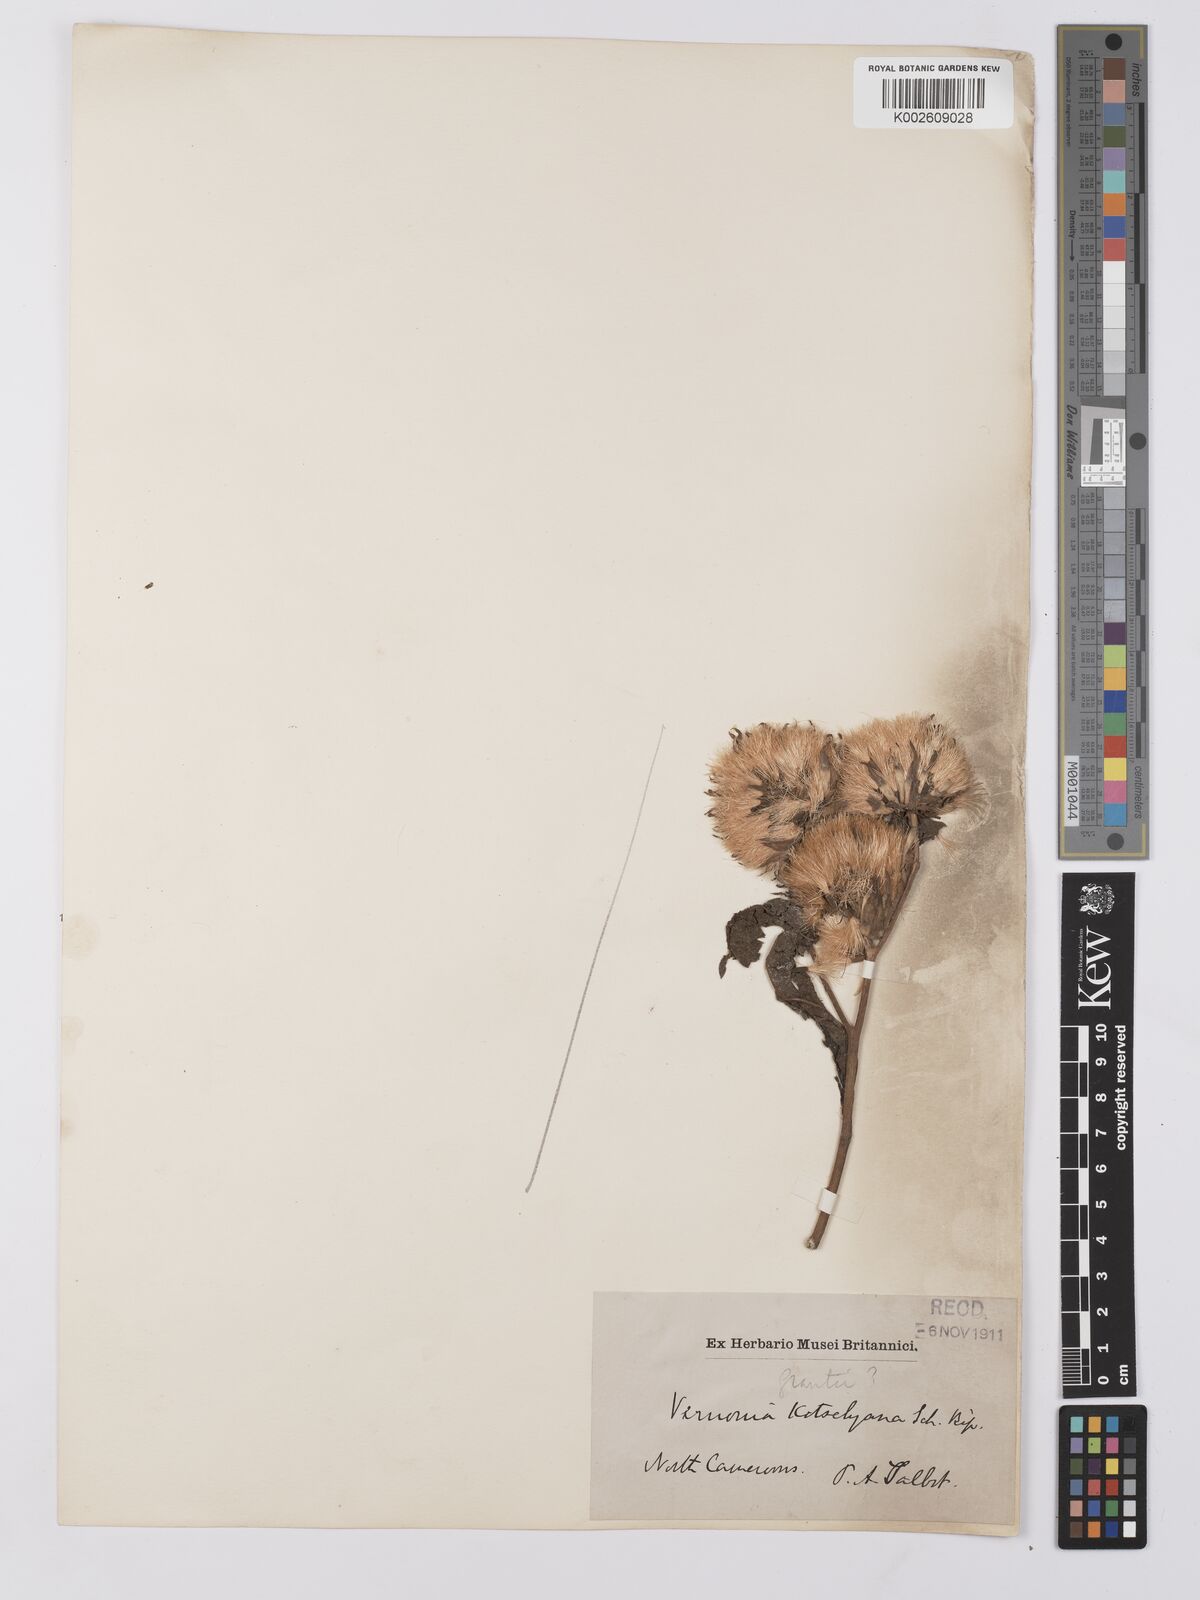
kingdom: Plantae
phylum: Tracheophyta
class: Magnoliopsida
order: Asterales
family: Asteraceae
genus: Baccharoides
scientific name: Baccharoides adoensis
